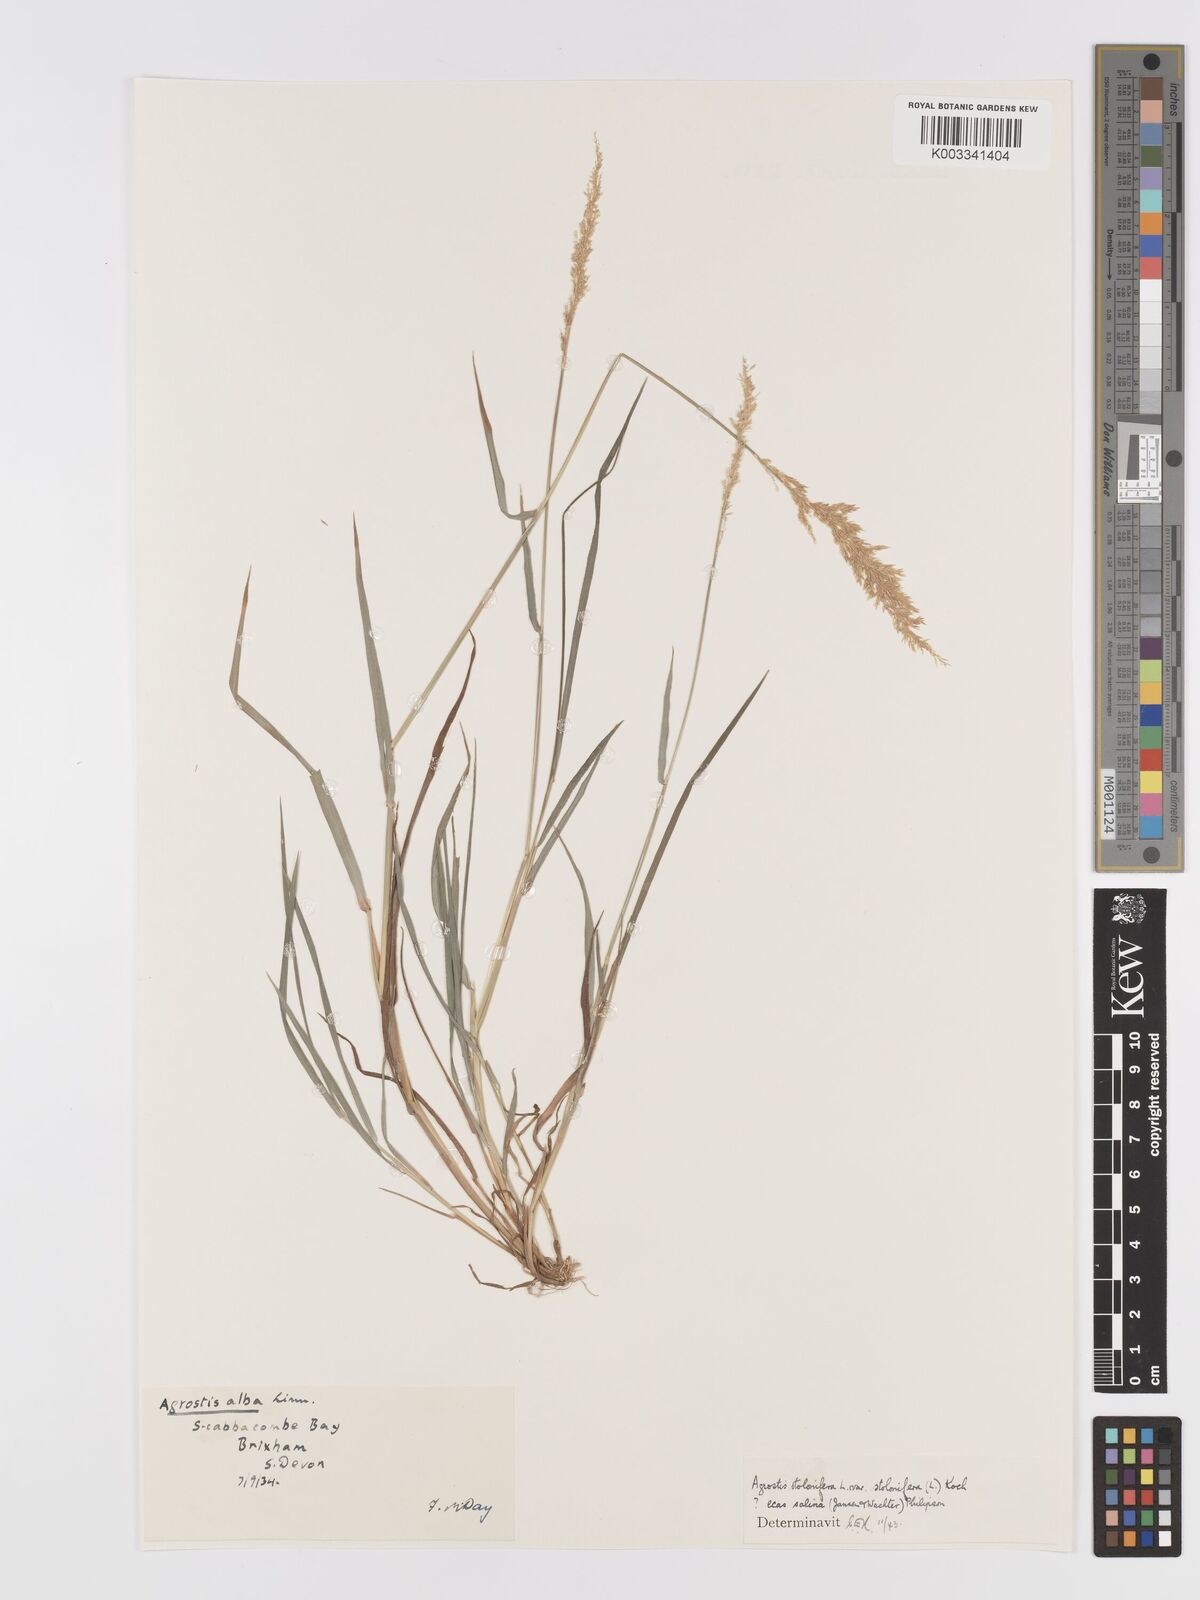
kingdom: Plantae
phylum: Tracheophyta
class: Liliopsida
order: Poales
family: Poaceae
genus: Agrostis
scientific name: Agrostis stolonifera
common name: Creeping bentgrass
